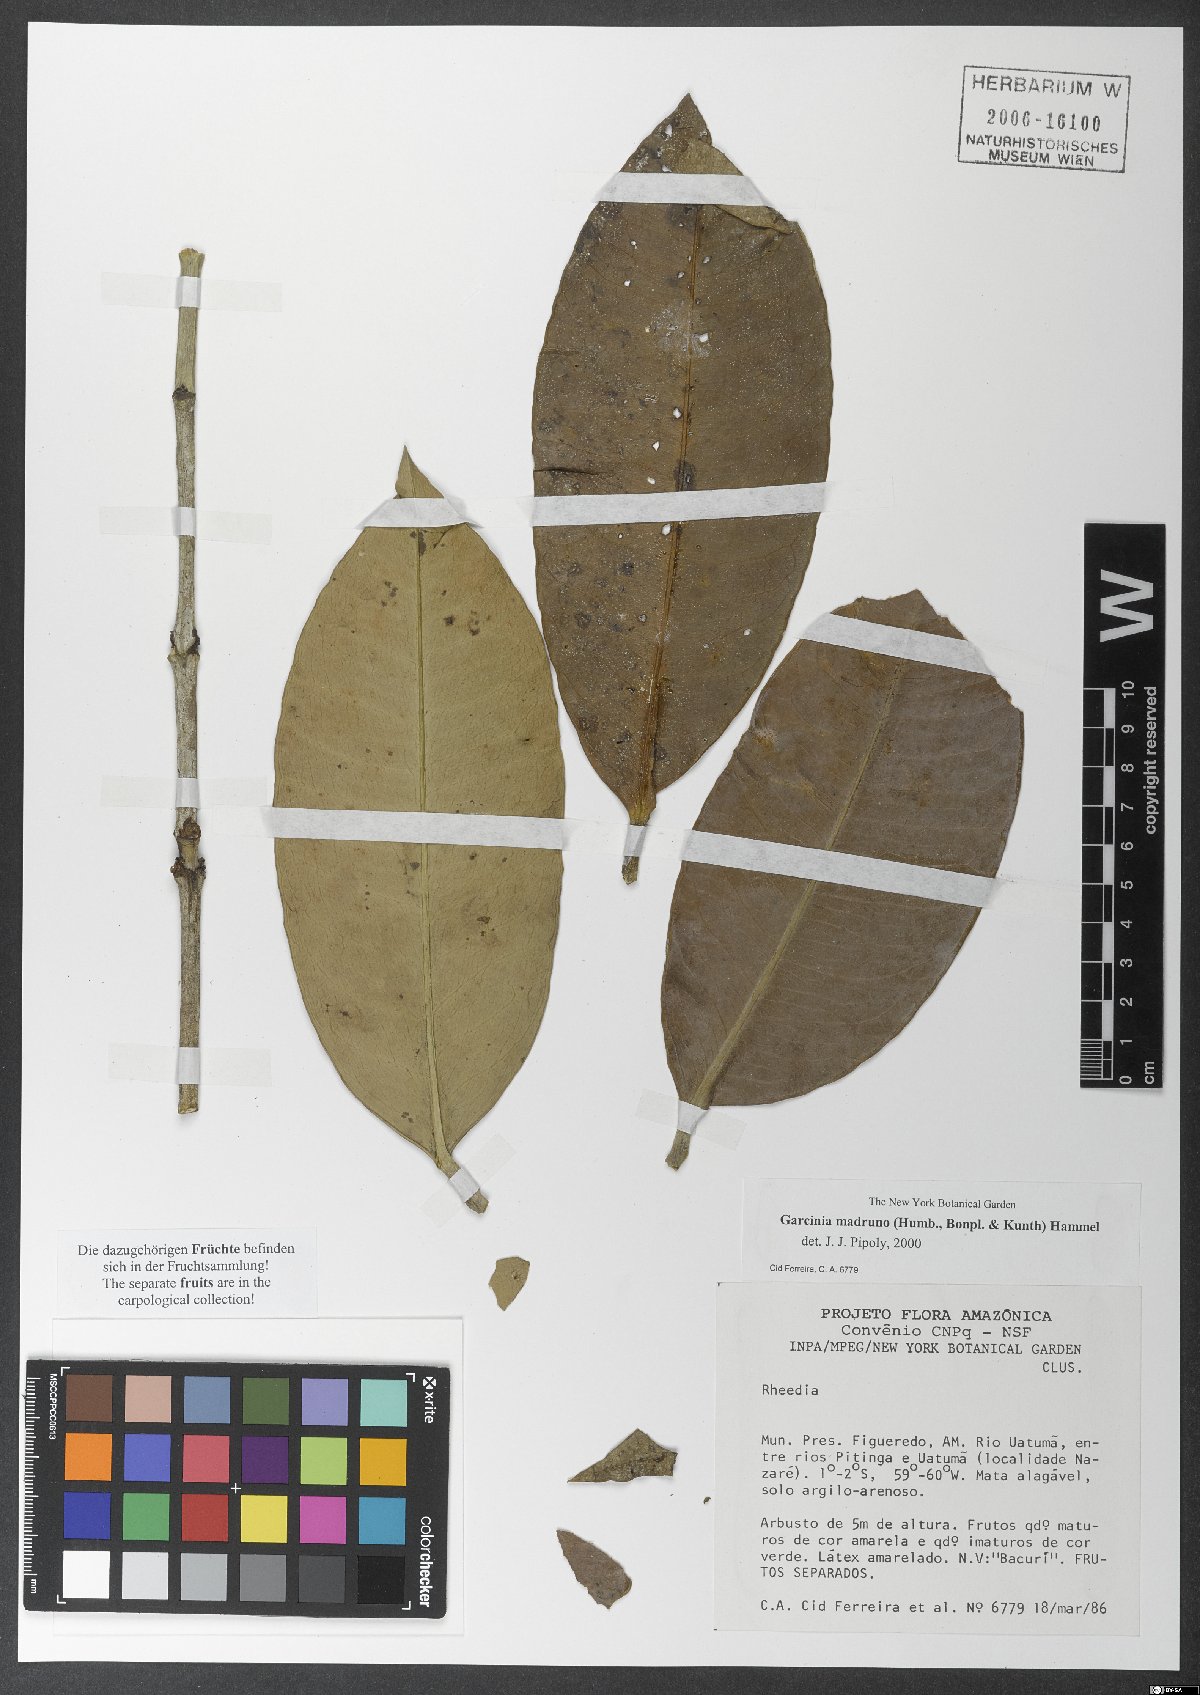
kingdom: Plantae
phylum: Tracheophyta
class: Magnoliopsida
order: Malpighiales
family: Clusiaceae
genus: Garcinia
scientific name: Garcinia madruno
